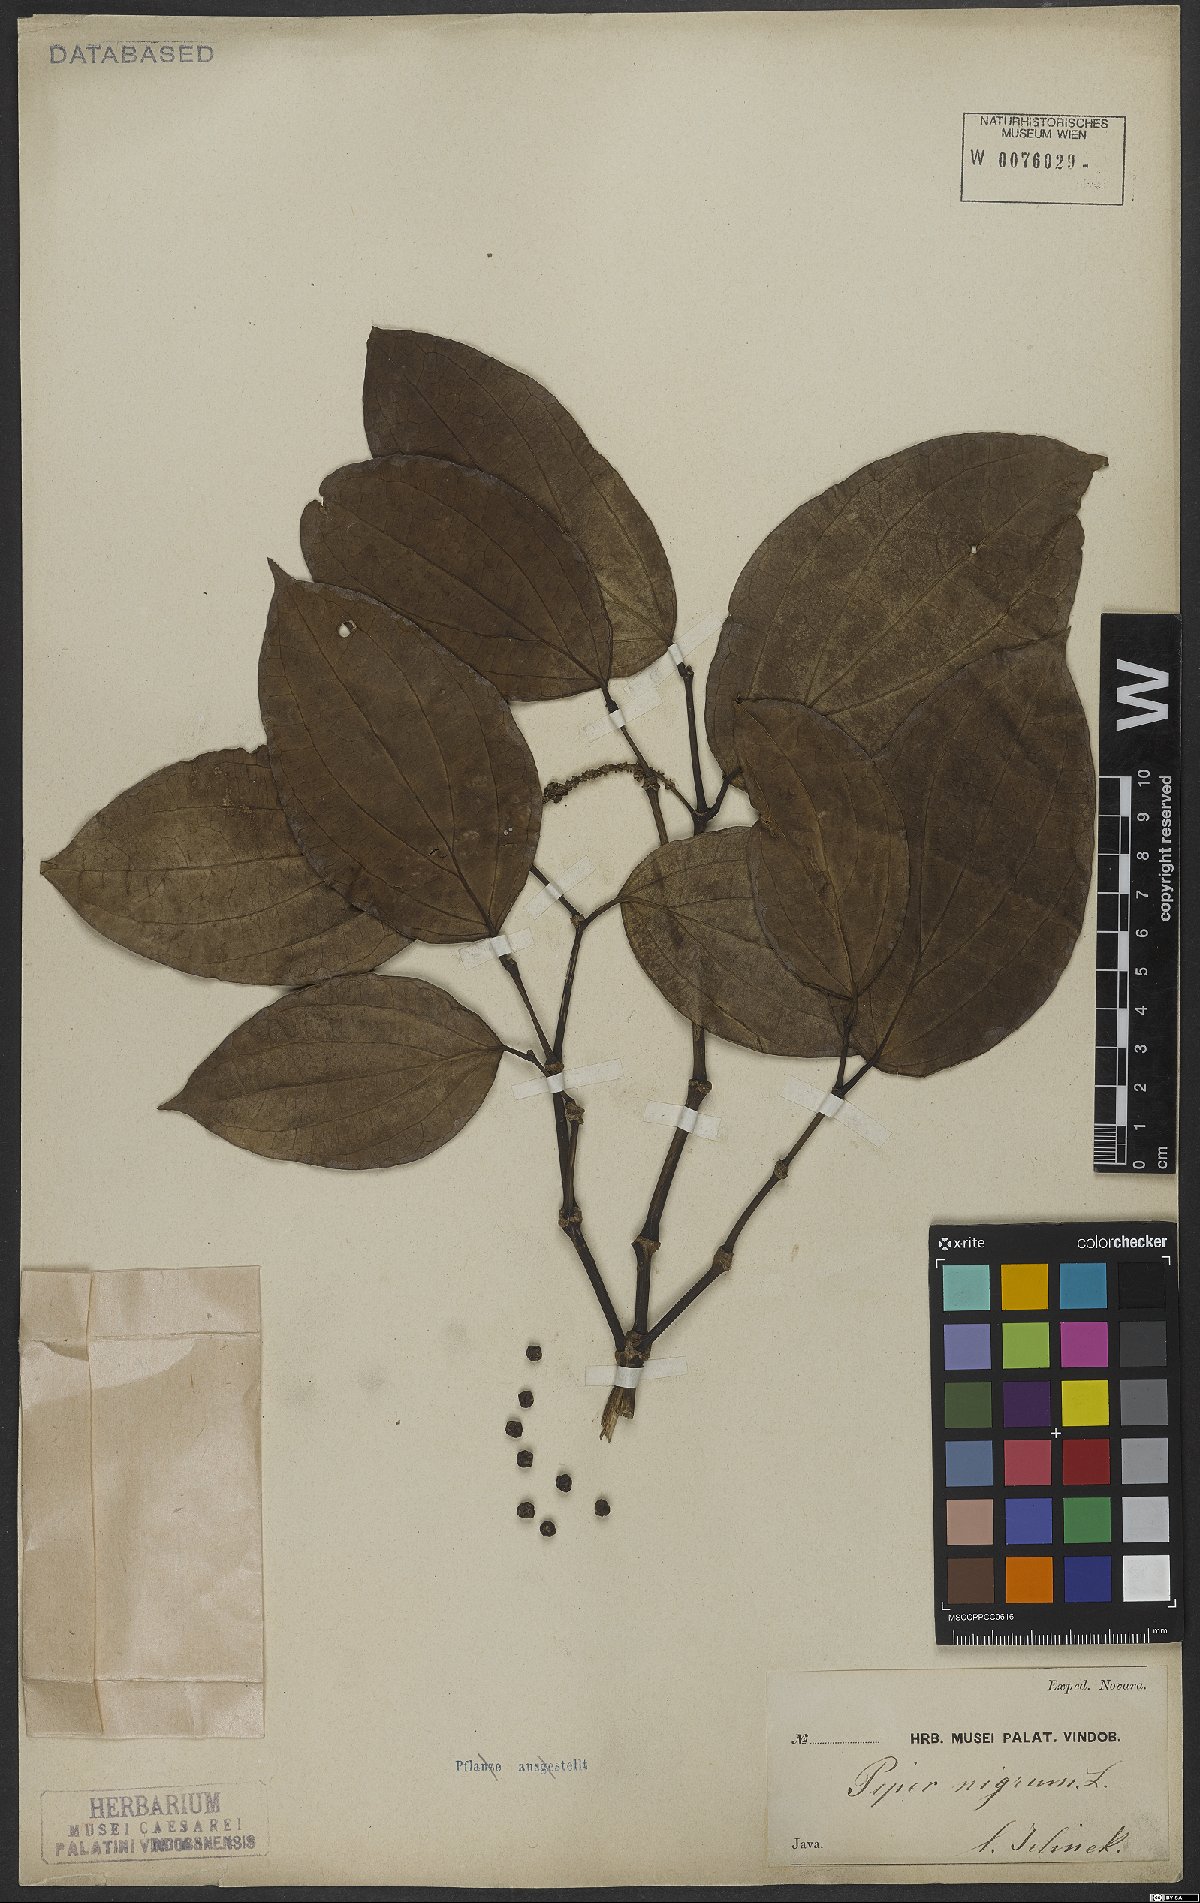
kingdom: Plantae
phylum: Tracheophyta
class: Magnoliopsida
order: Piperales
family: Piperaceae
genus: Piper
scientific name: Piper nigrum
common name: Black pepper
